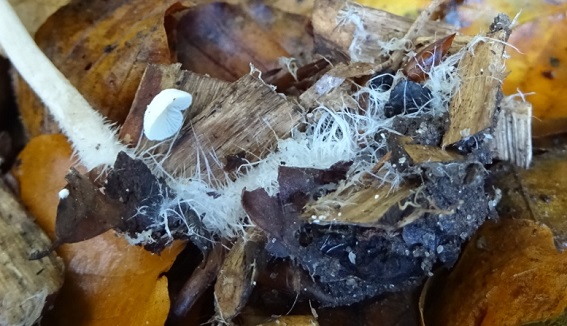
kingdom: Fungi
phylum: Basidiomycota
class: Agaricomycetes
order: Agaricales
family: Psathyrellaceae
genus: Psathyrella
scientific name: Psathyrella microrhiza
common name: rod-mørkhat
